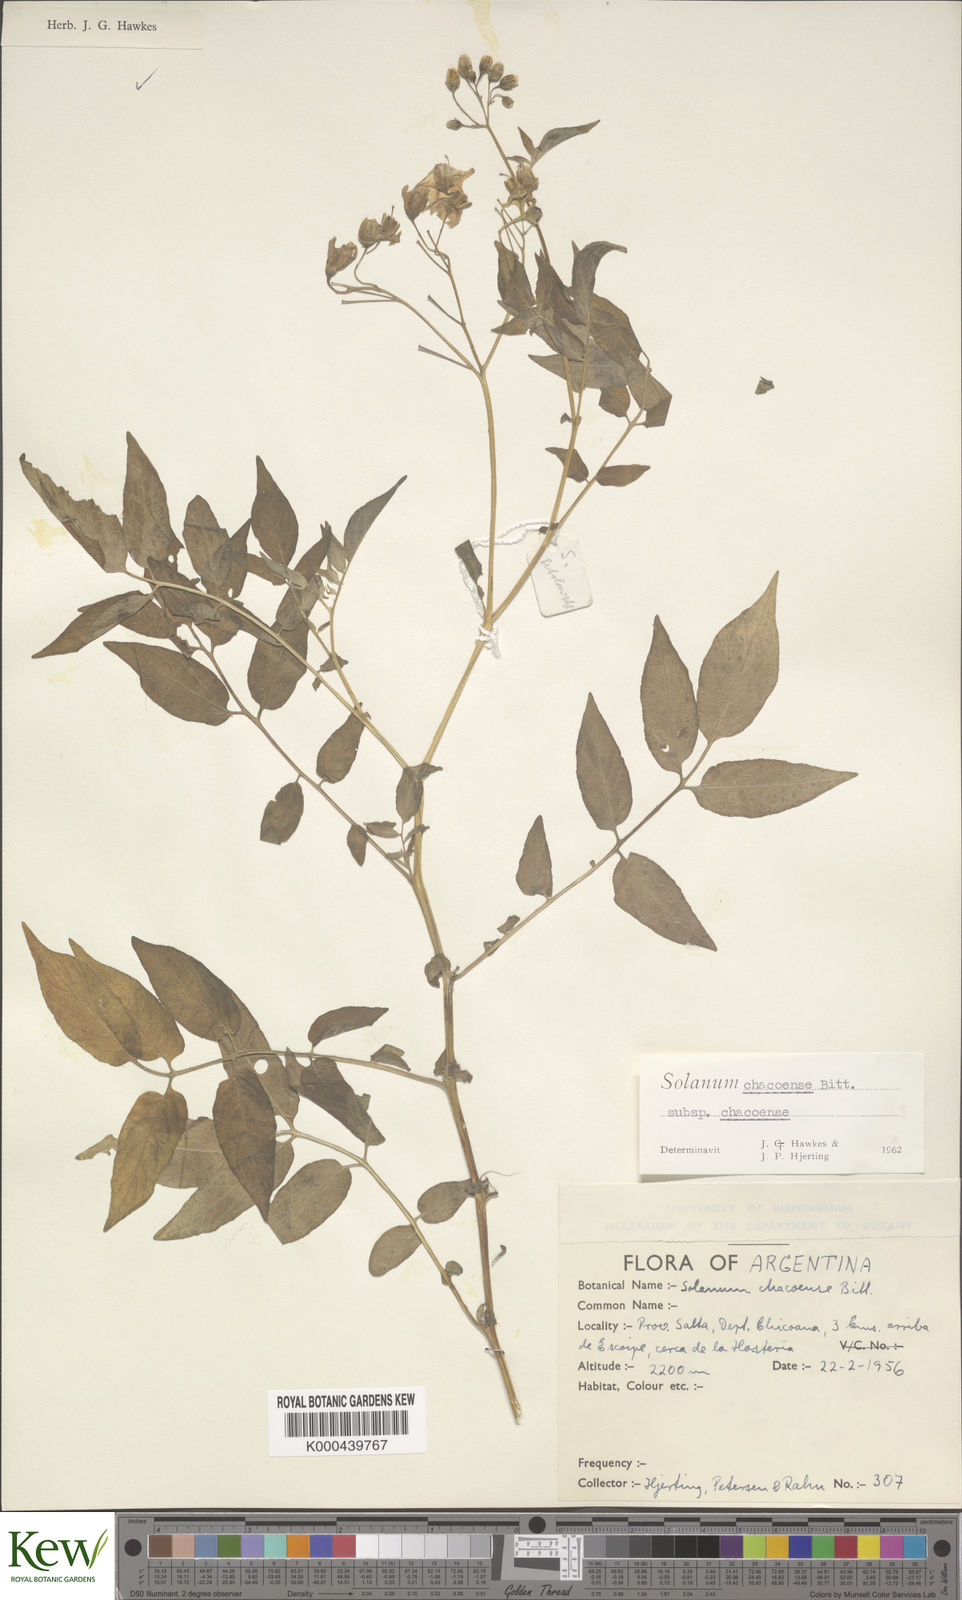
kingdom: Plantae
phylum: Tracheophyta
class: Magnoliopsida
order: Solanales
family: Solanaceae
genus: Solanum
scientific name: Solanum chacoense
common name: Chaco potato
